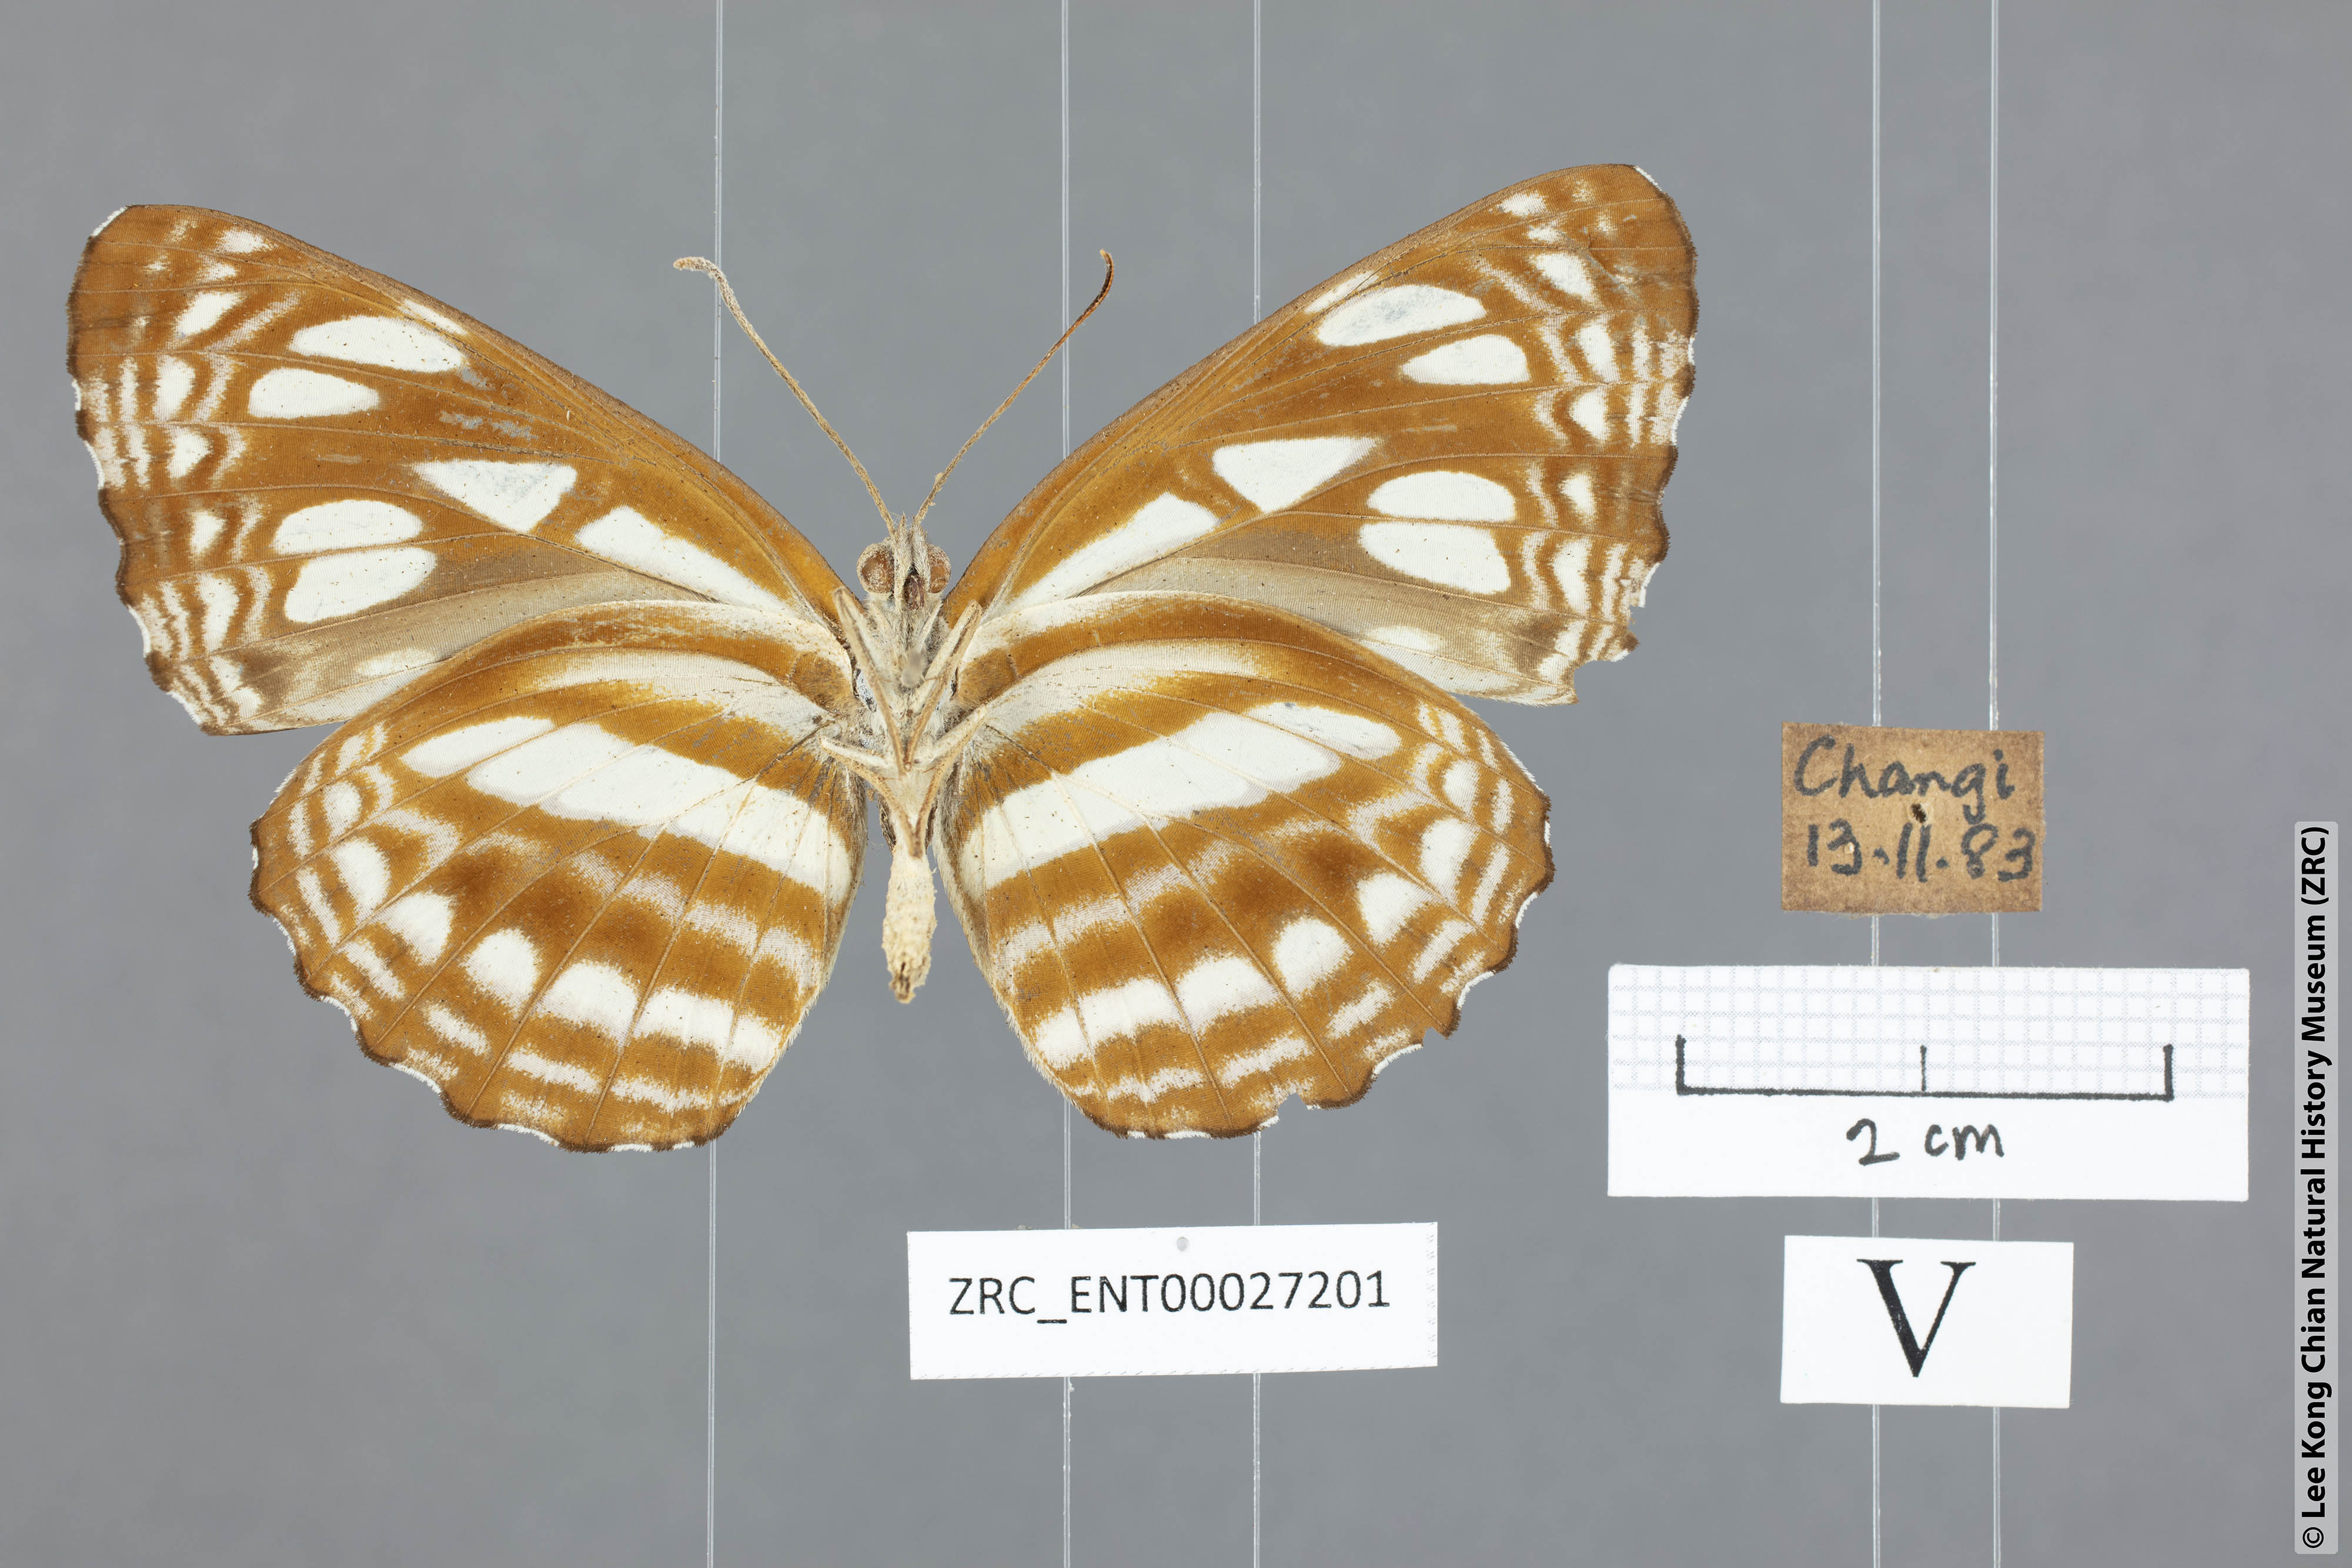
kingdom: Animalia
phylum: Arthropoda
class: Insecta
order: Lepidoptera
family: Nymphalidae
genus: Phaedyma
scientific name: Phaedyma columella
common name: Short banded sailer
